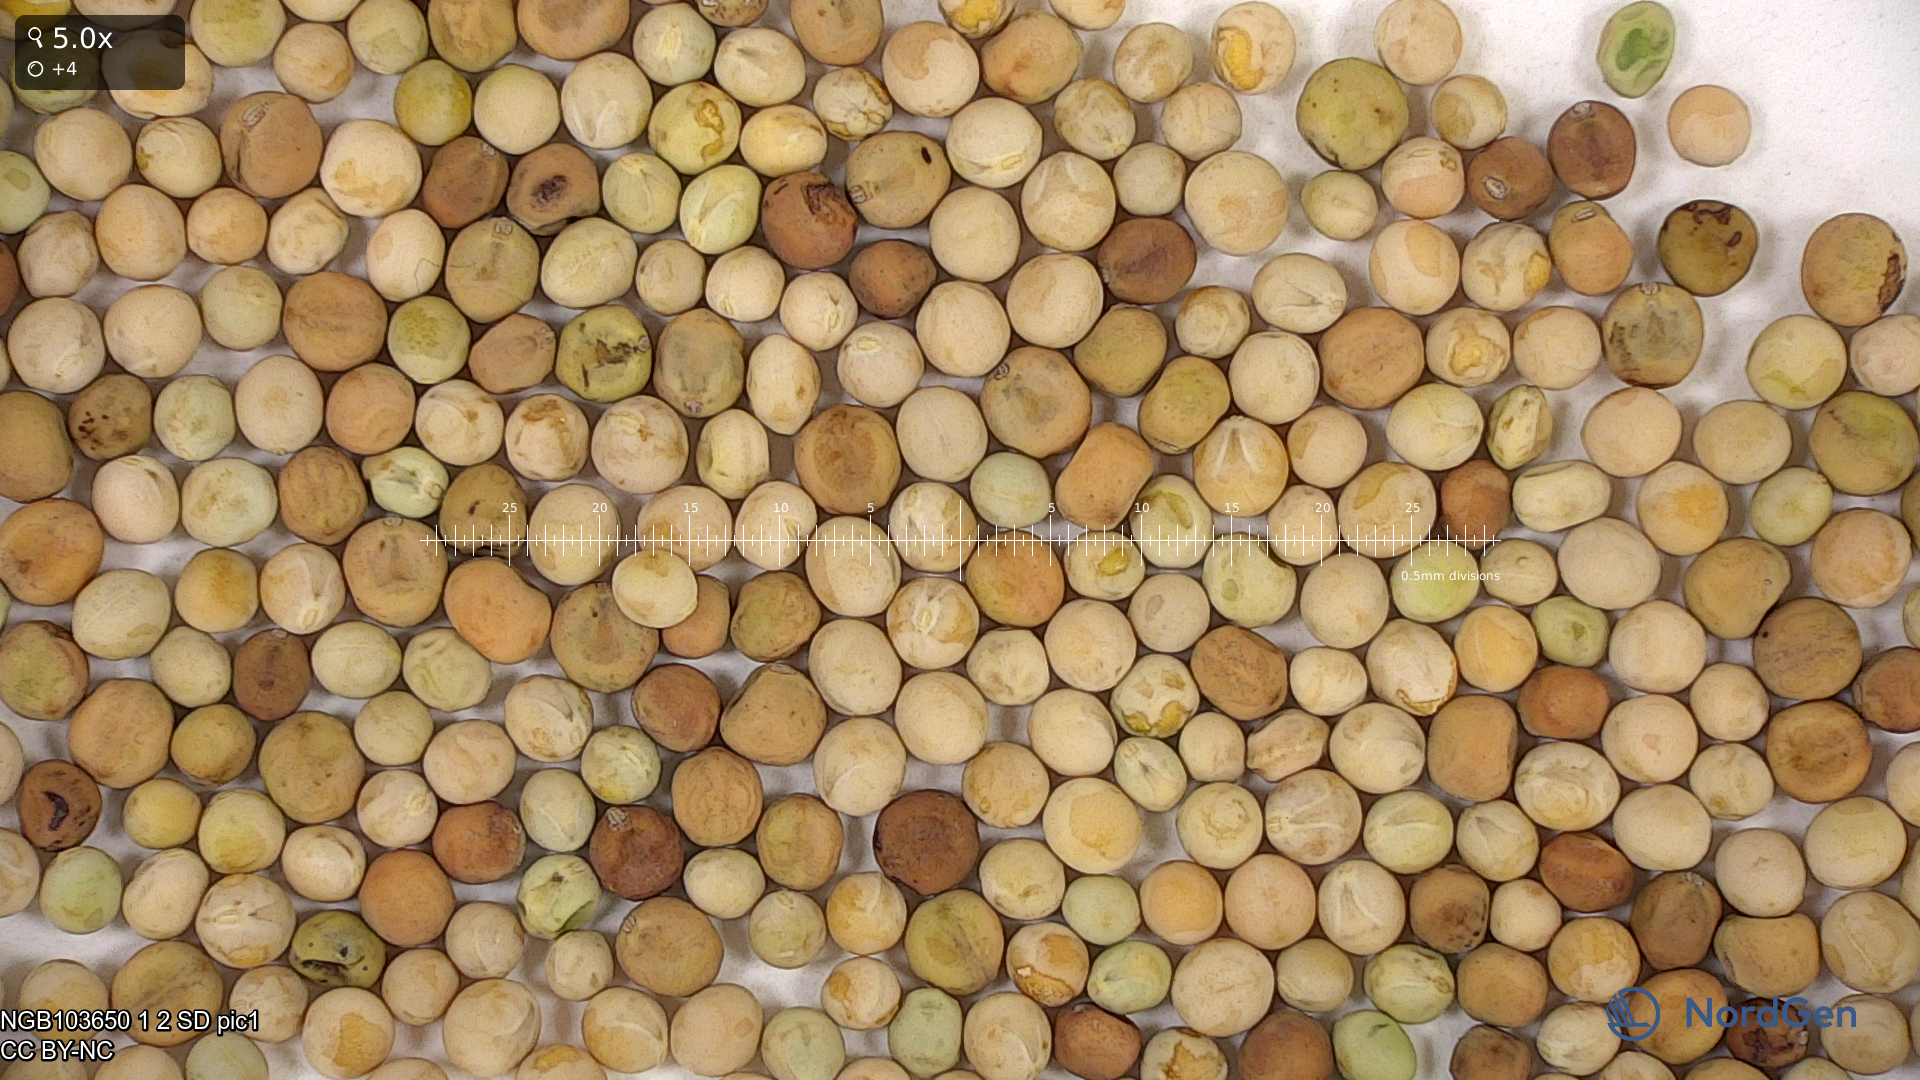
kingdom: Plantae
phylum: Tracheophyta
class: Magnoliopsida
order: Fabales
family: Fabaceae
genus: Lathyrus
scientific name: Lathyrus oleraceus
